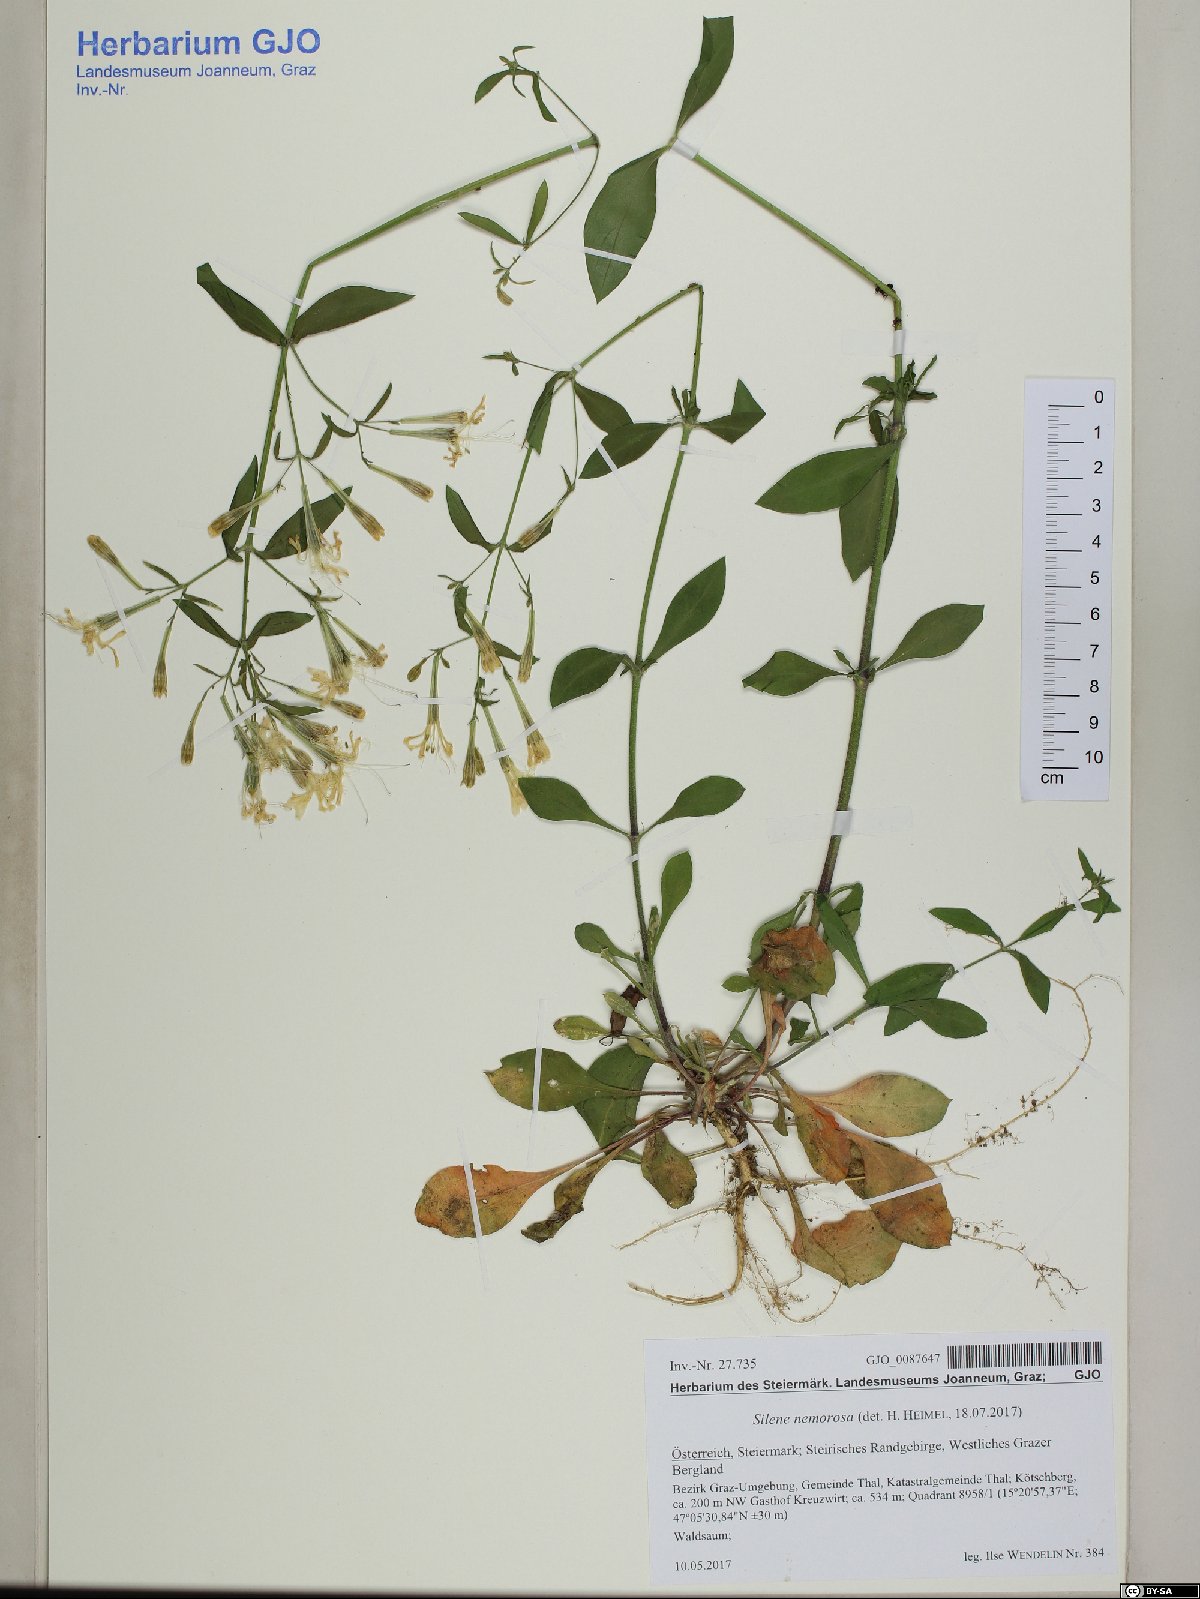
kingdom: Plantae
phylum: Tracheophyta
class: Magnoliopsida
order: Caryophyllales
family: Caryophyllaceae
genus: Silene
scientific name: Silene nemoralis
